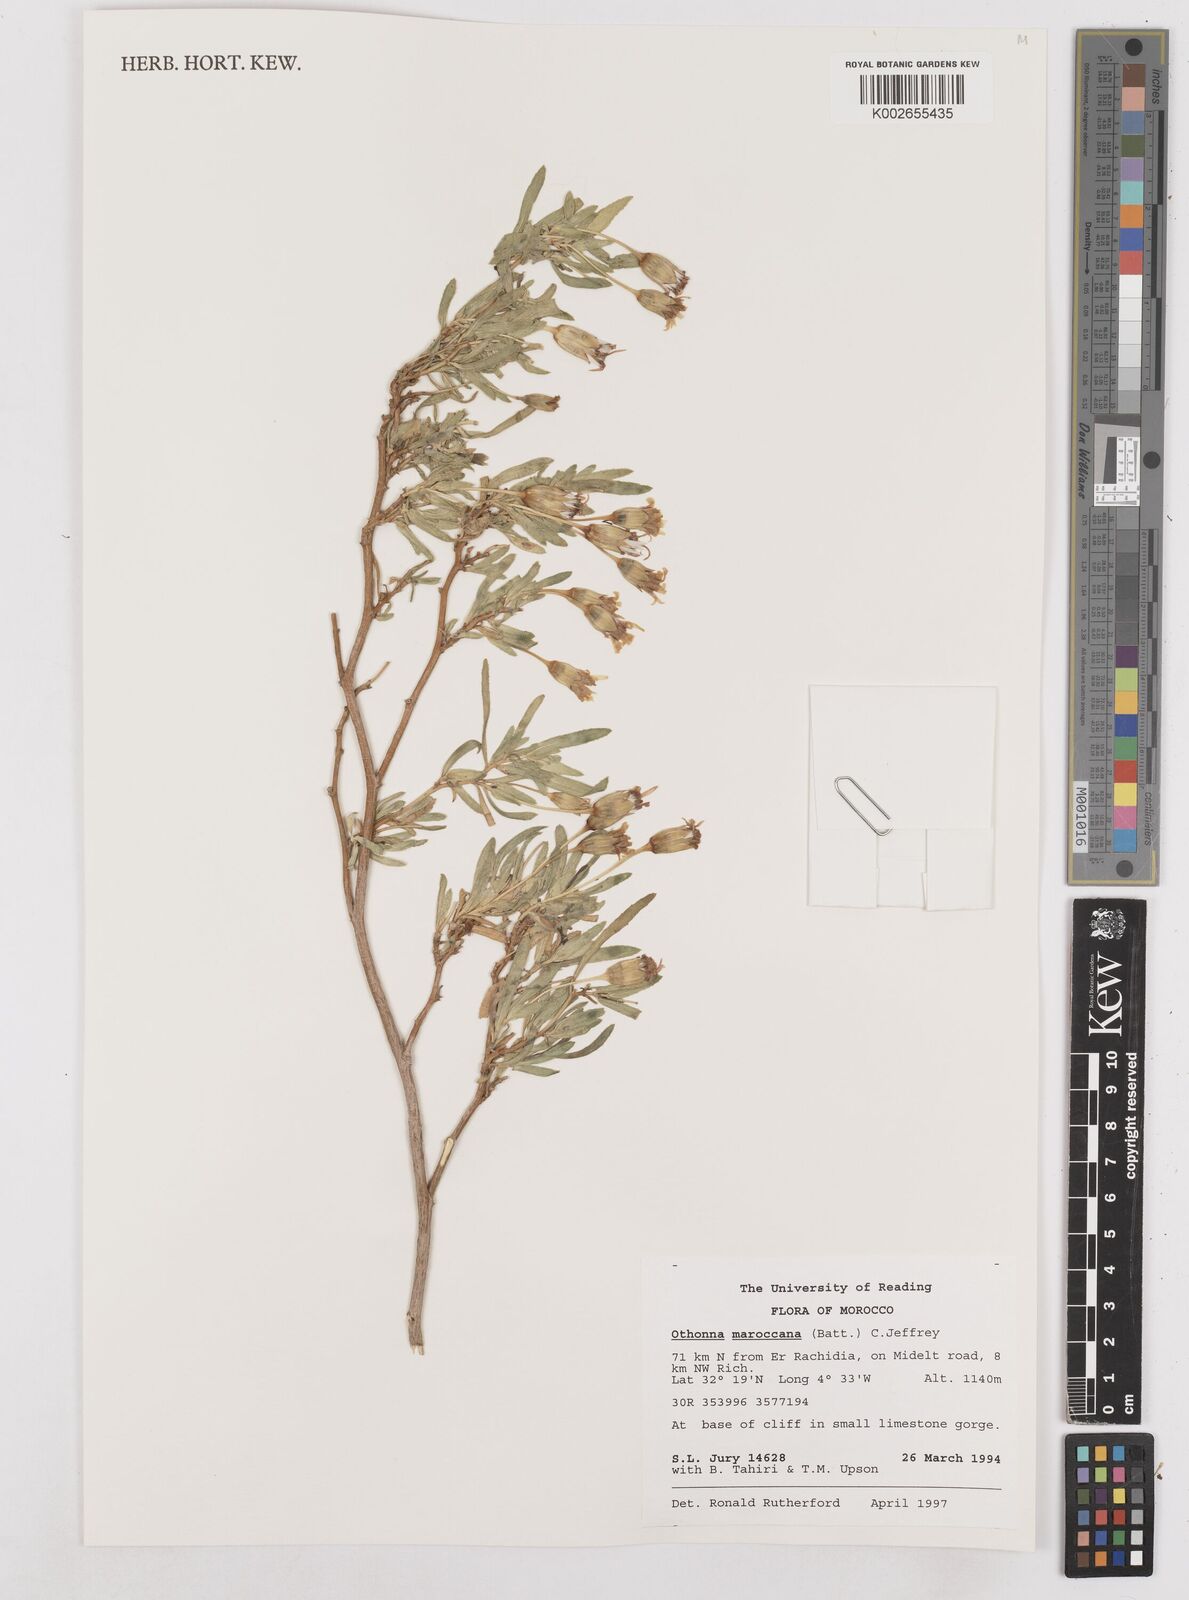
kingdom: Plantae
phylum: Tracheophyta
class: Magnoliopsida
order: Asterales
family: Asteraceae
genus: Hertia
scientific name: Hertia maroccana
